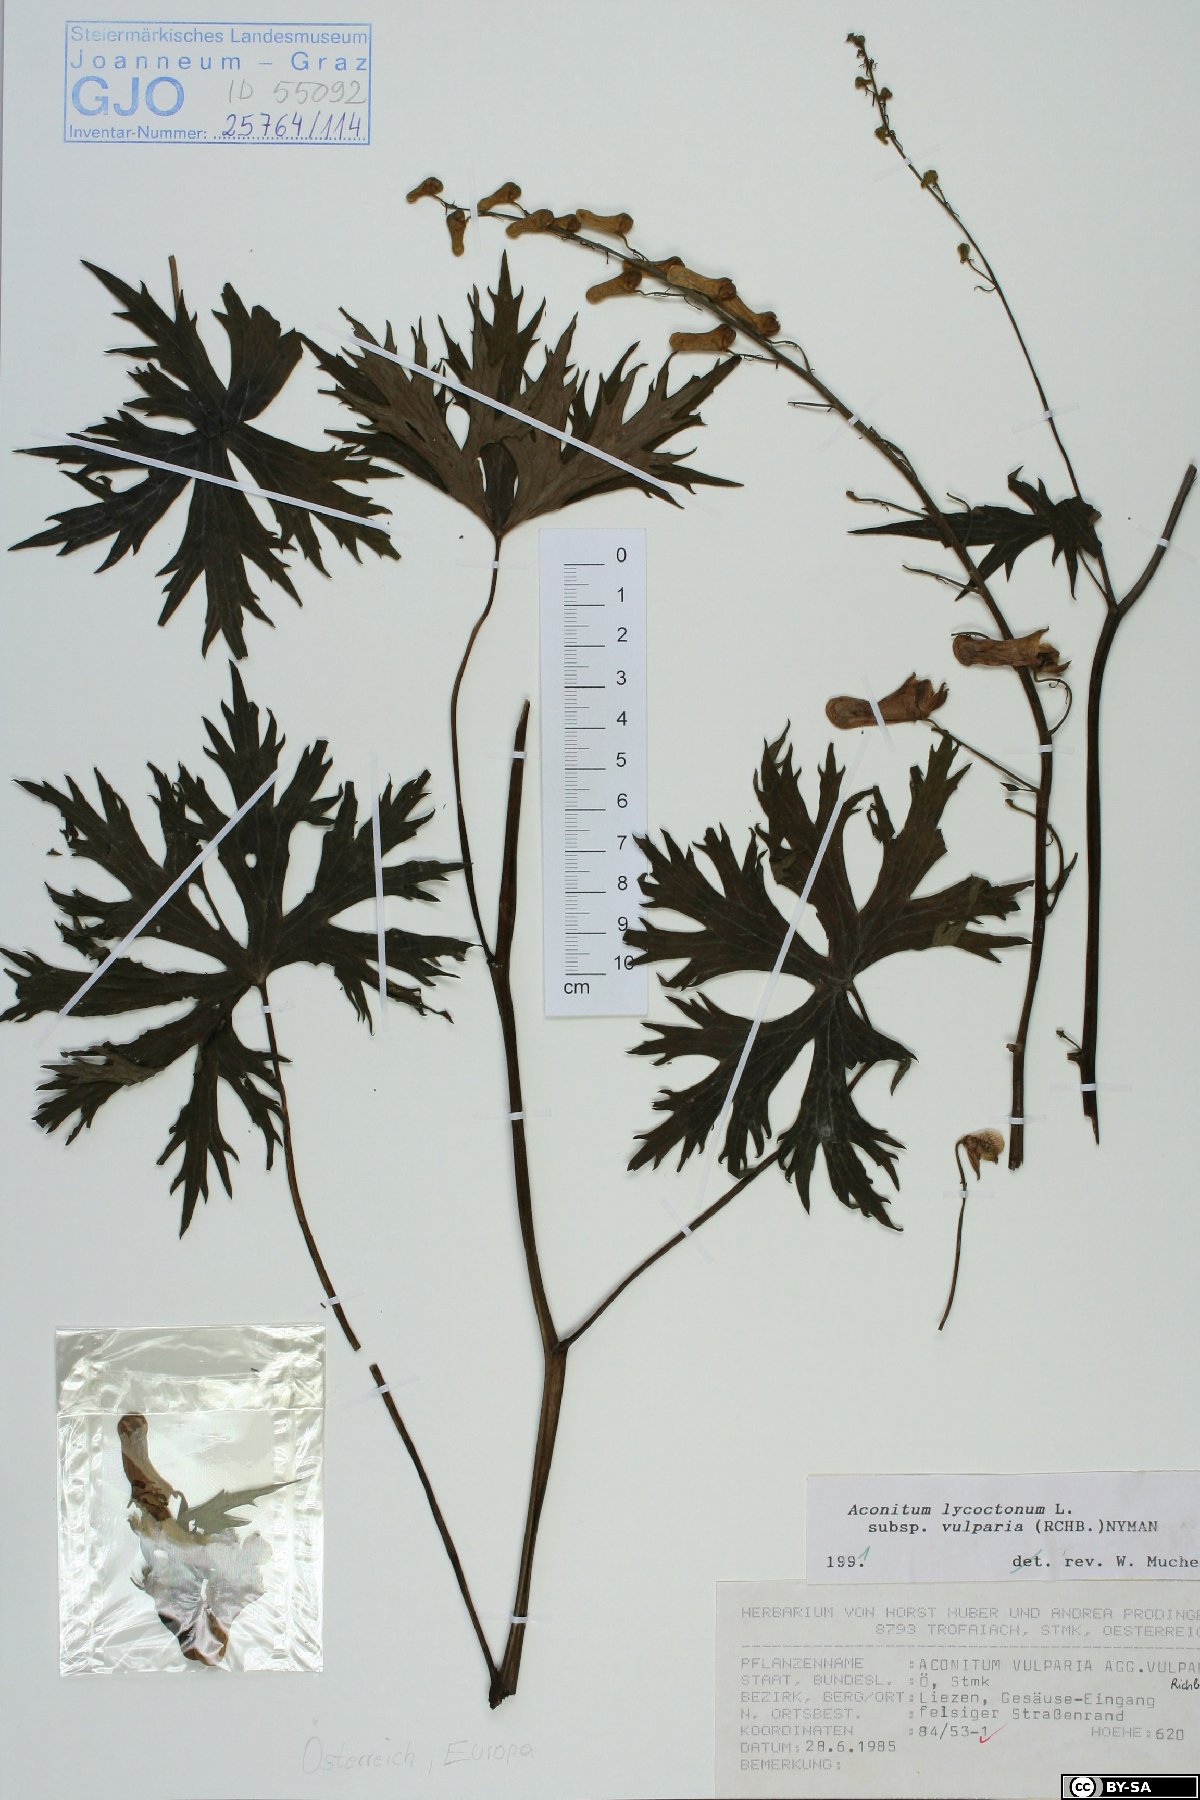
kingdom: Plantae
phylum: Tracheophyta
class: Magnoliopsida
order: Ranunculales
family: Ranunculaceae
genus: Aconitum
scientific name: Aconitum lycoctonum
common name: Wolf's-bane
